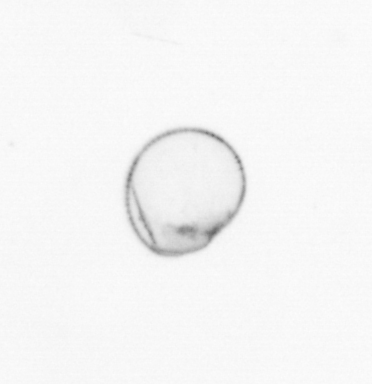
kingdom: Chromista
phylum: Myzozoa
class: Dinophyceae
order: Noctilucales
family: Noctilucaceae
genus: Noctiluca
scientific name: Noctiluca scintillans
